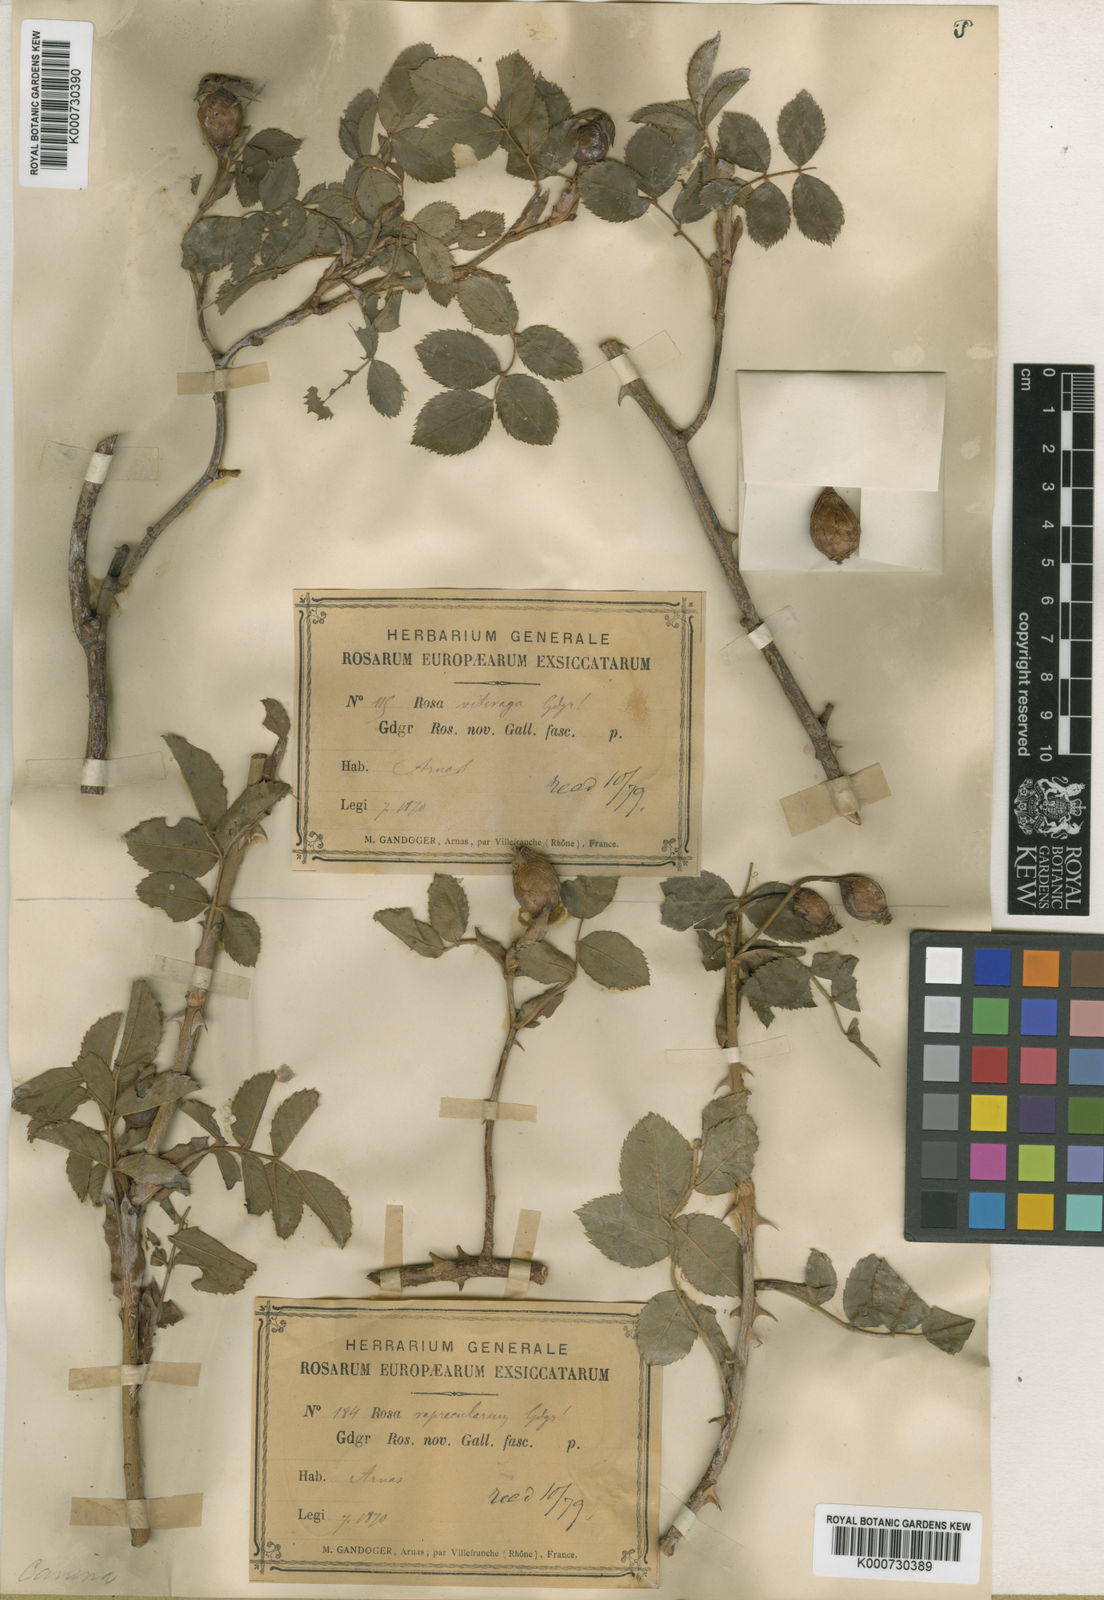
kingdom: Plantae
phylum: Tracheophyta
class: Magnoliopsida
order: Rosales
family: Rosaceae
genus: Rosa
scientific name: Rosa canina
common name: Dog rose
